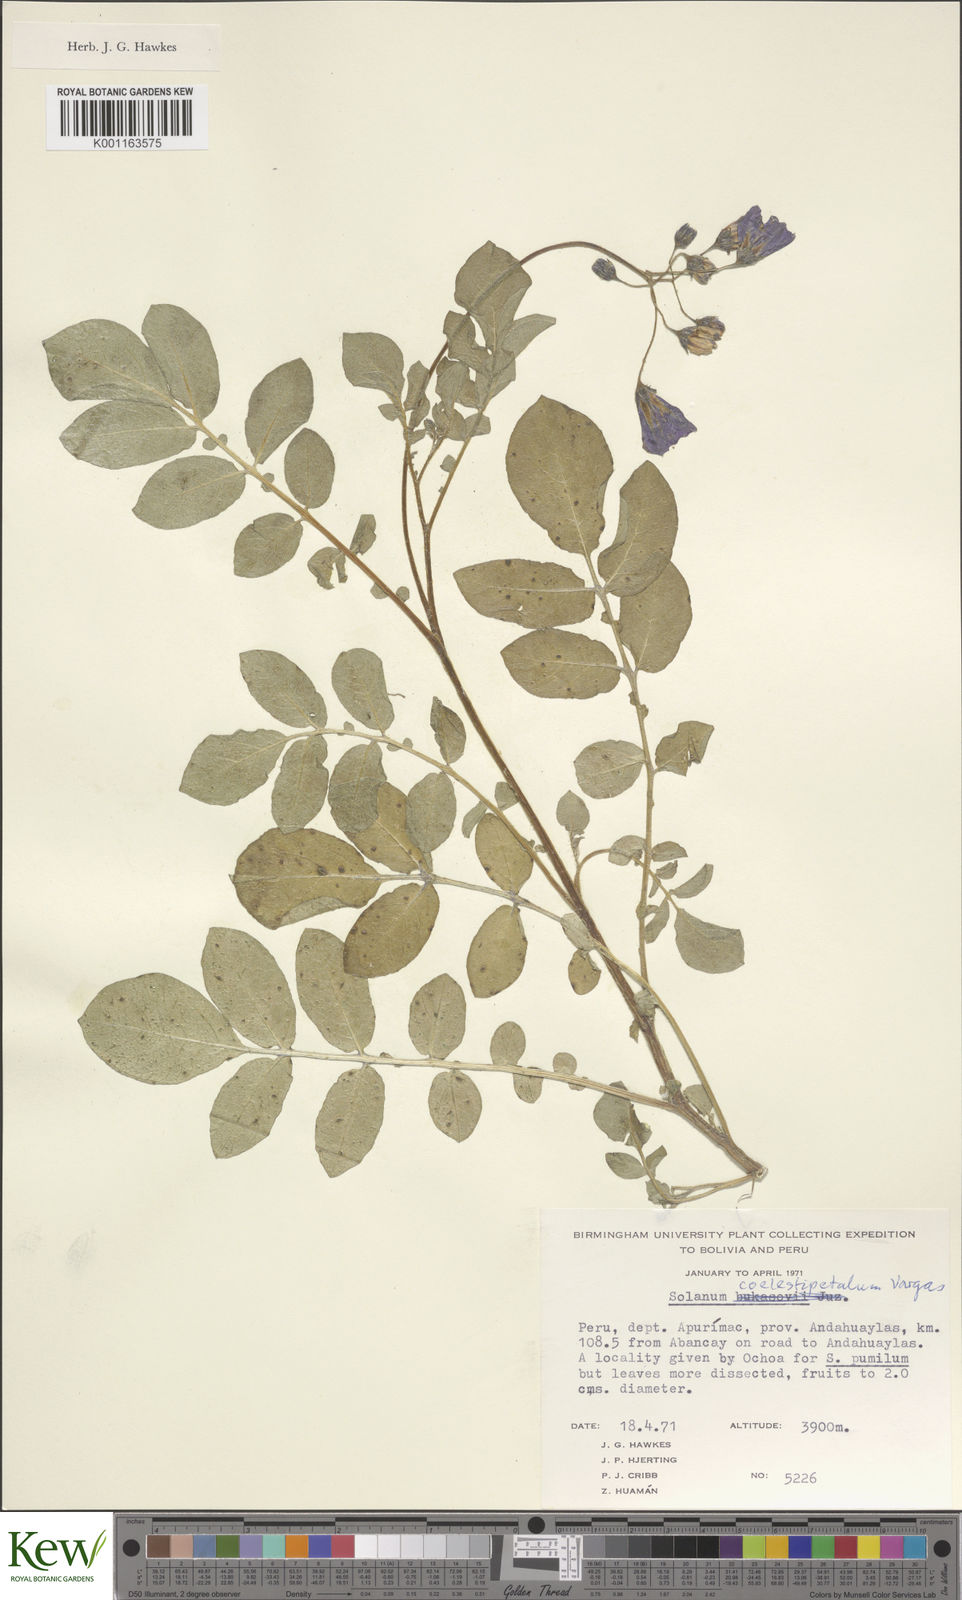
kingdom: Plantae
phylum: Tracheophyta
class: Magnoliopsida
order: Solanales
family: Solanaceae
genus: Solanum
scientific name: Solanum brevicaule
